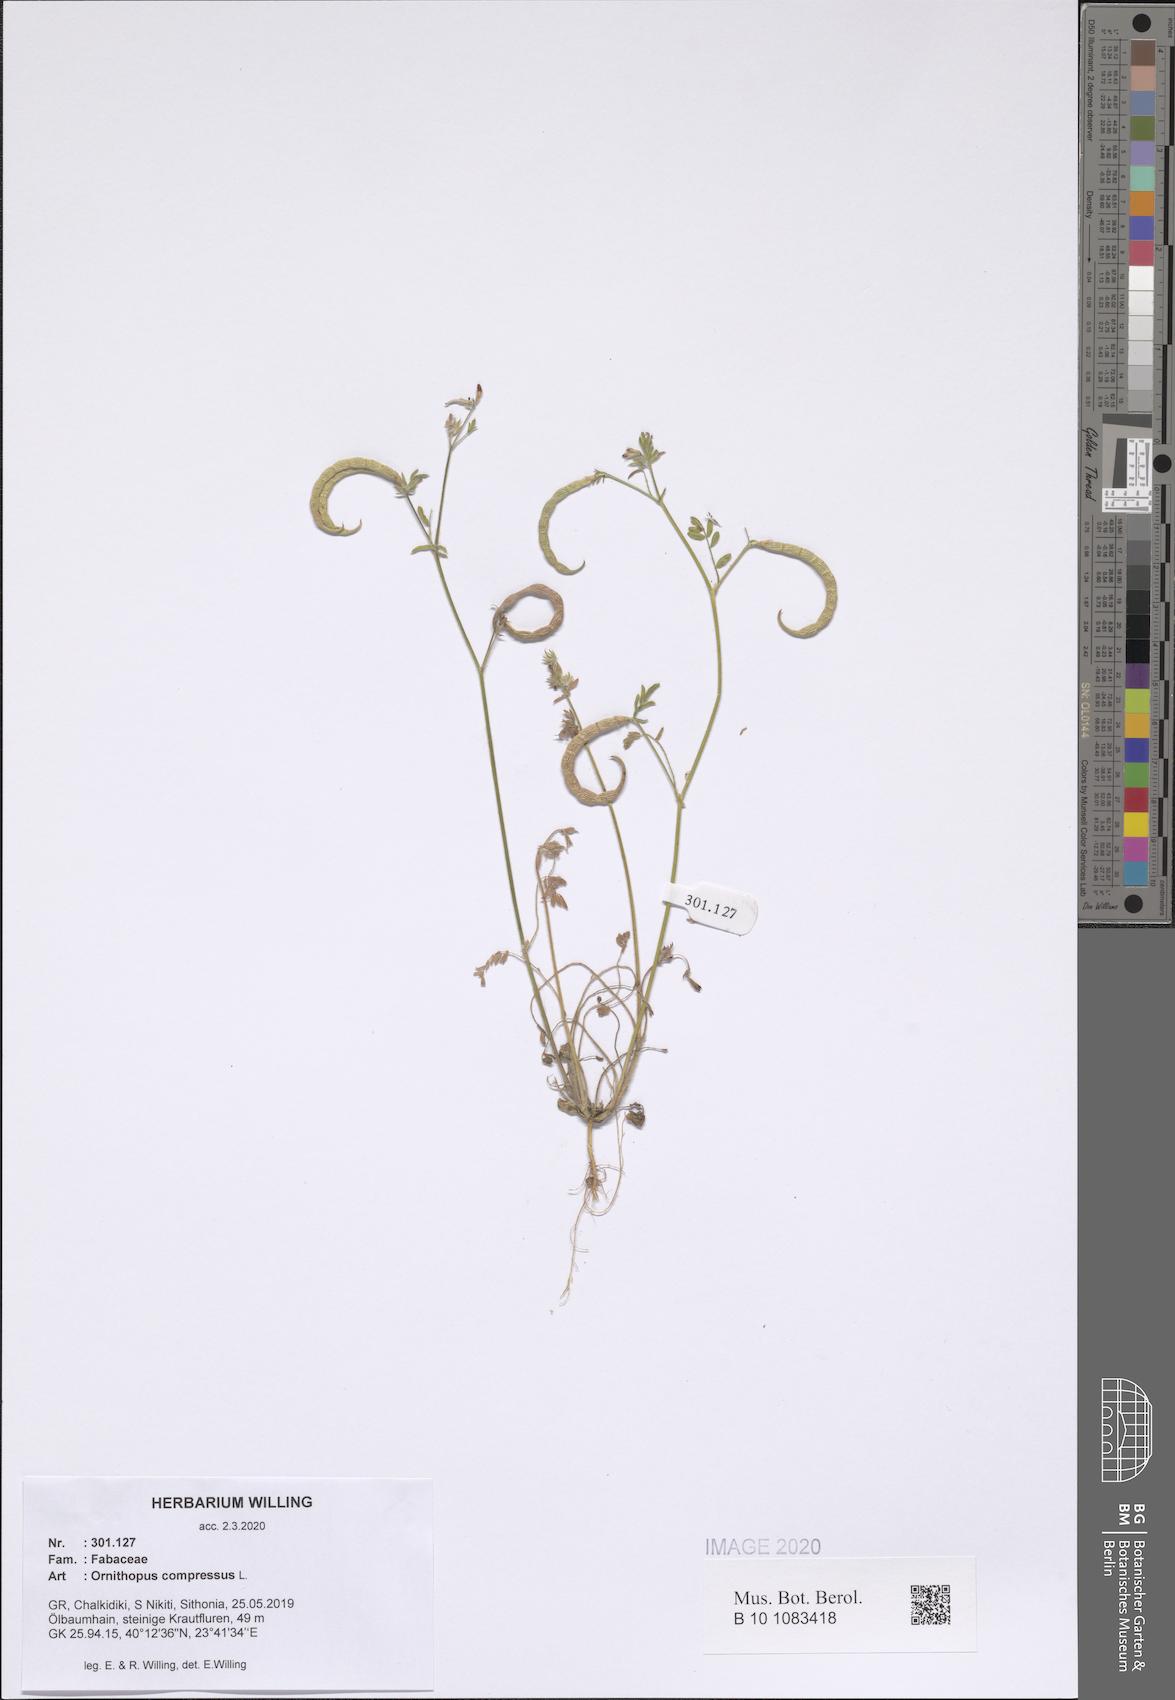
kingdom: Plantae
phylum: Tracheophyta
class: Magnoliopsida
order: Fabales
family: Fabaceae
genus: Ornithopus
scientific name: Ornithopus compressus
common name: Yellow serradella
